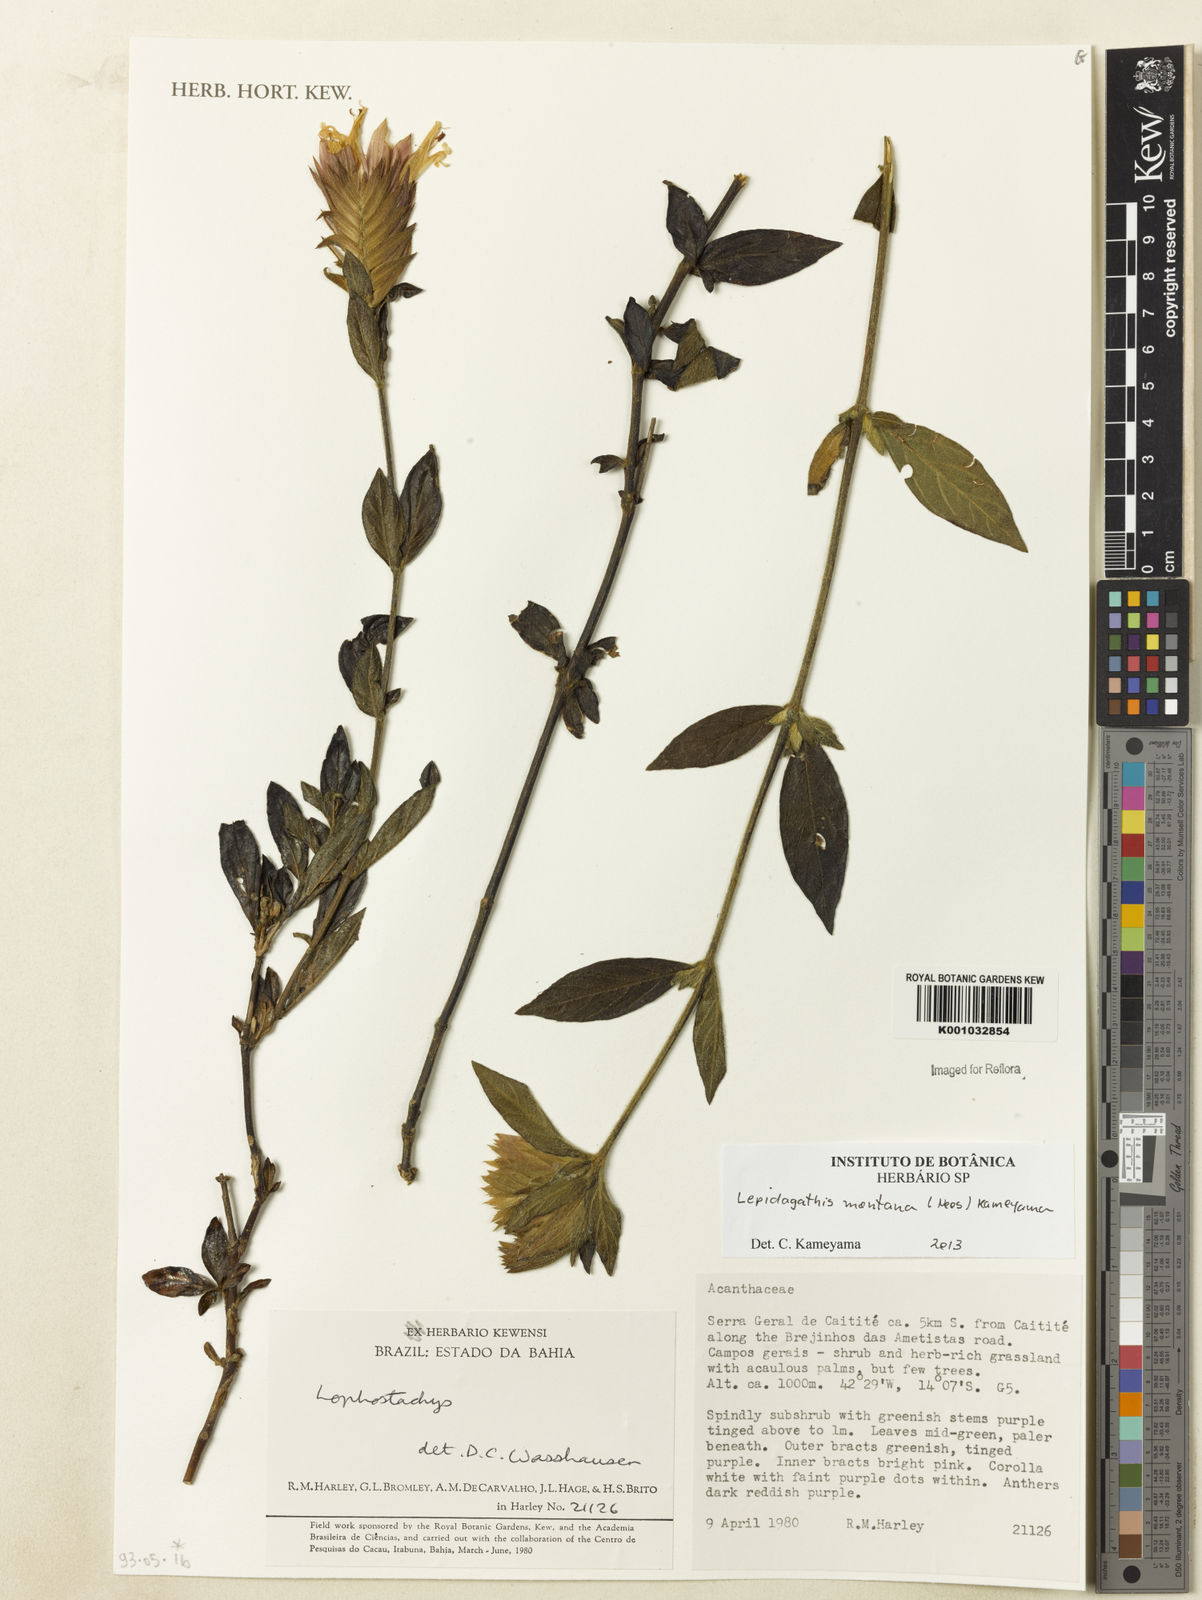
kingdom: Plantae
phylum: Tracheophyta
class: Magnoliopsida
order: Lamiales
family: Acanthaceae
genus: Lepidagathis
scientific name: Lepidagathis montana
